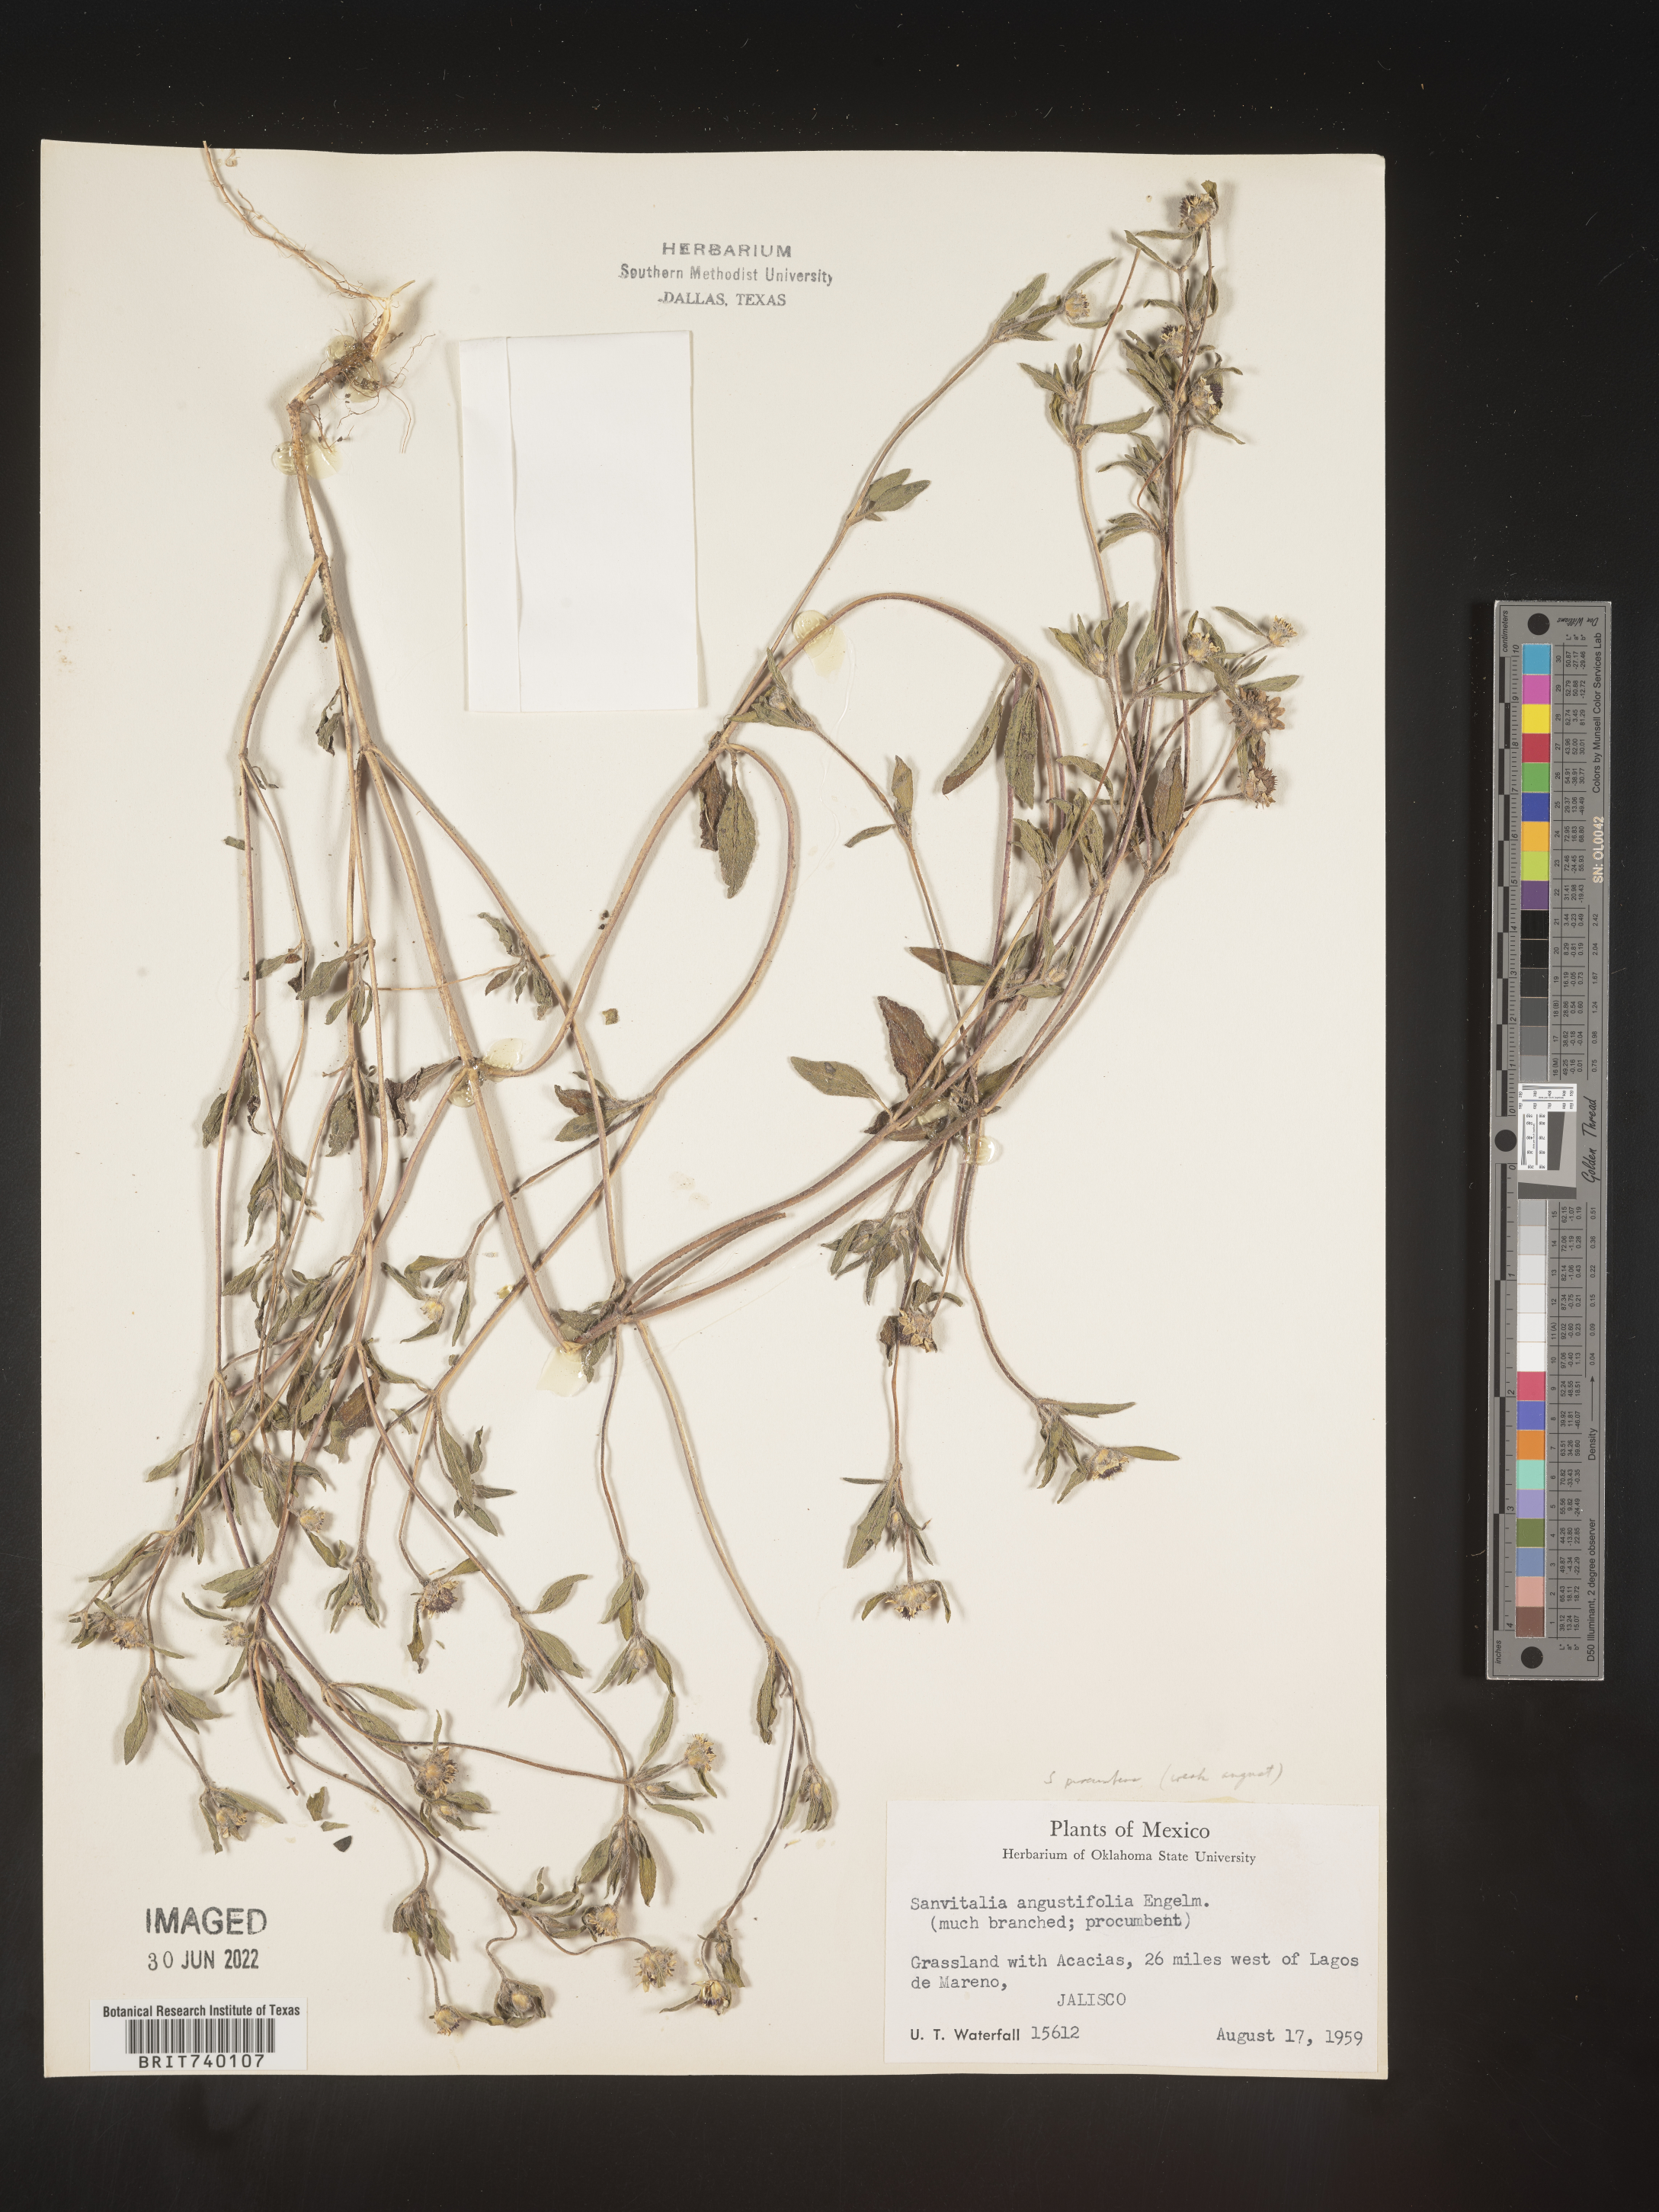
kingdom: Plantae
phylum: Tracheophyta
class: Magnoliopsida
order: Asterales
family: Asteraceae
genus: Sanvitalia
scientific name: Sanvitalia
